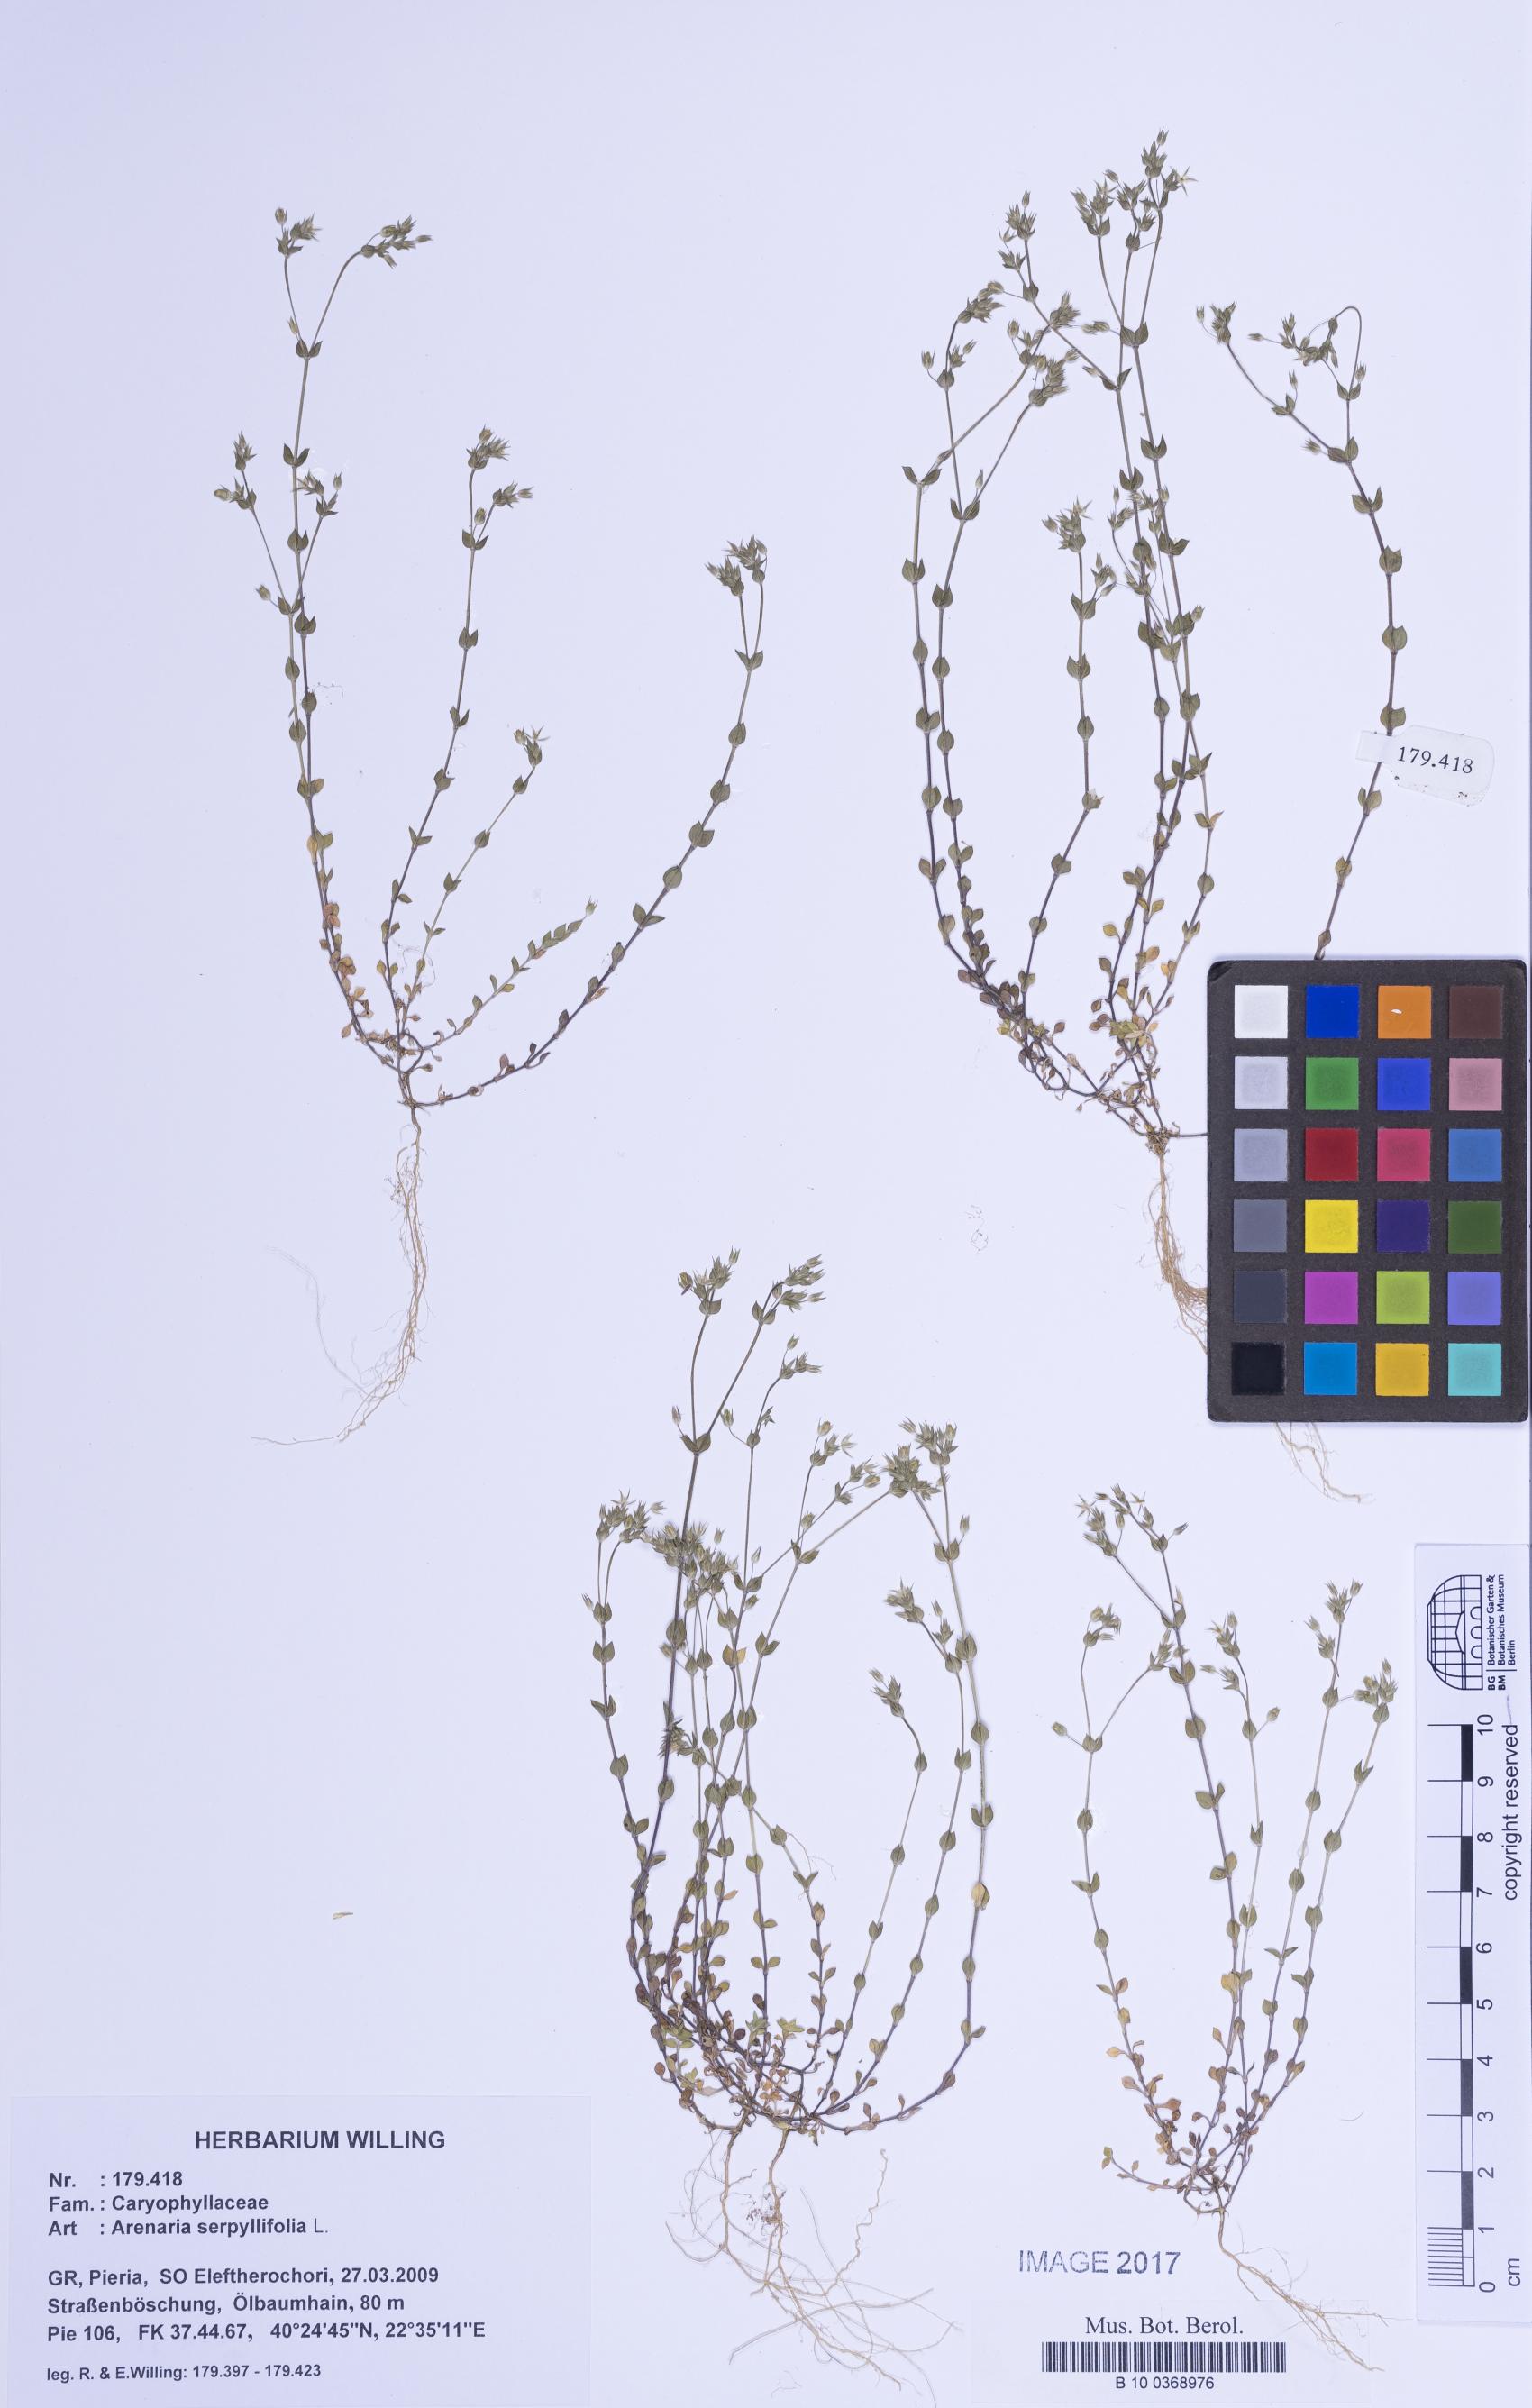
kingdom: Plantae
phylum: Tracheophyta
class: Magnoliopsida
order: Caryophyllales
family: Caryophyllaceae
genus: Arenaria
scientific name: Arenaria serpyllifolia
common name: Thyme-leaved sandwort
